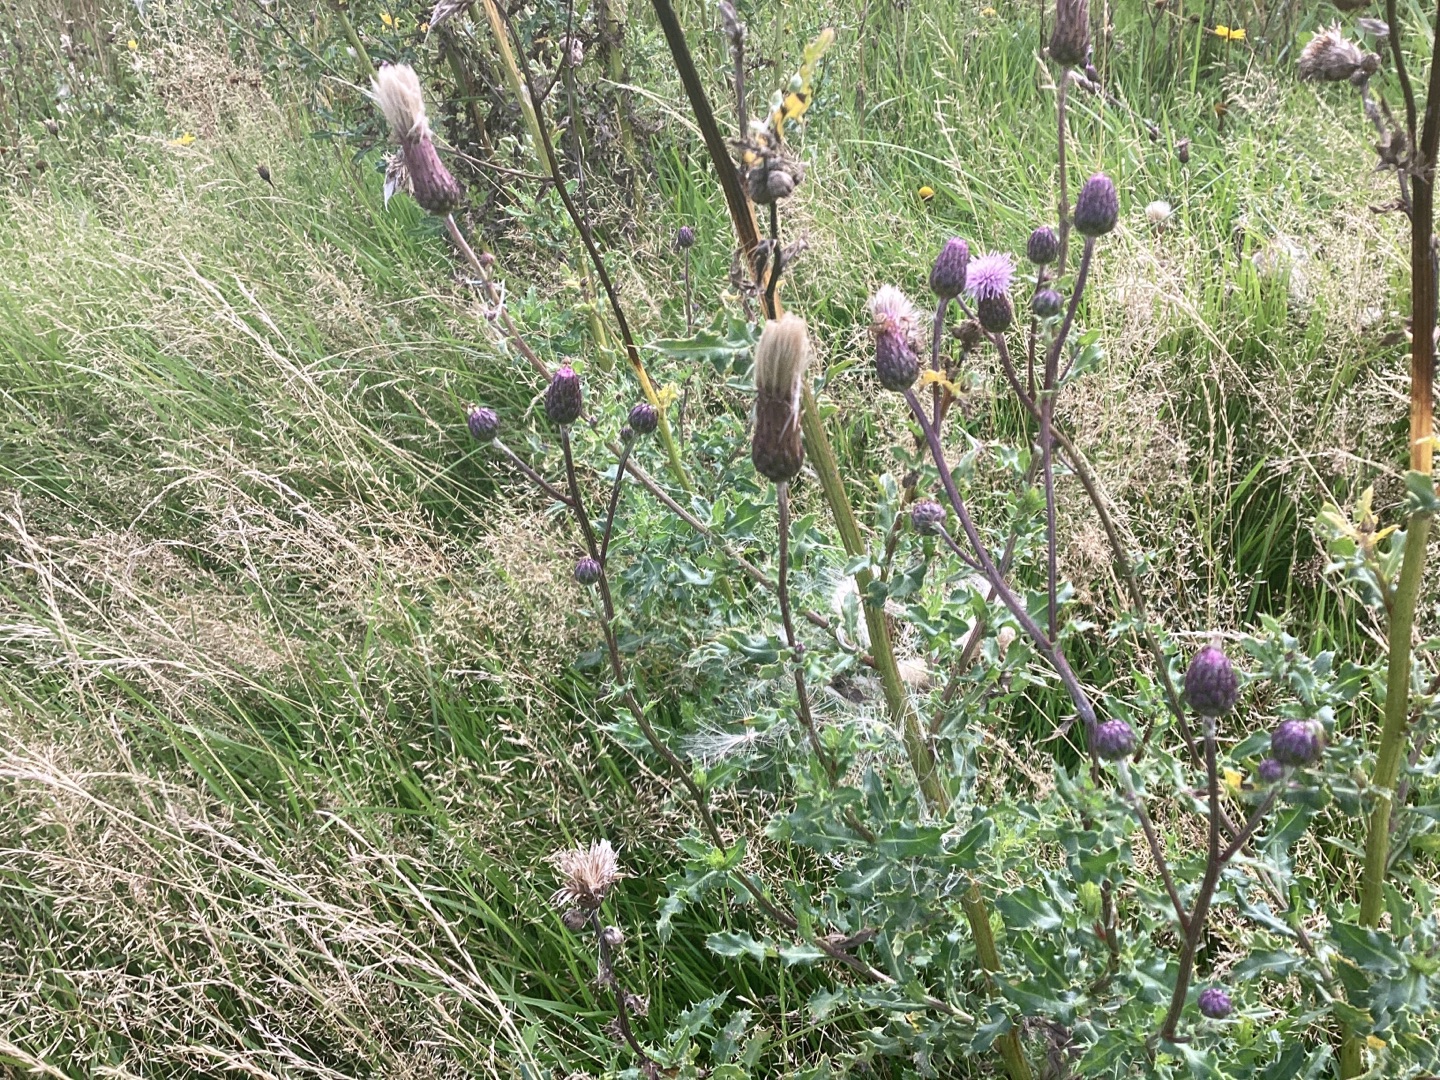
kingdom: Plantae
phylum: Tracheophyta
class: Magnoliopsida
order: Asterales
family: Asteraceae
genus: Cirsium
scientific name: Cirsium arvense
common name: Ager-tidsel
